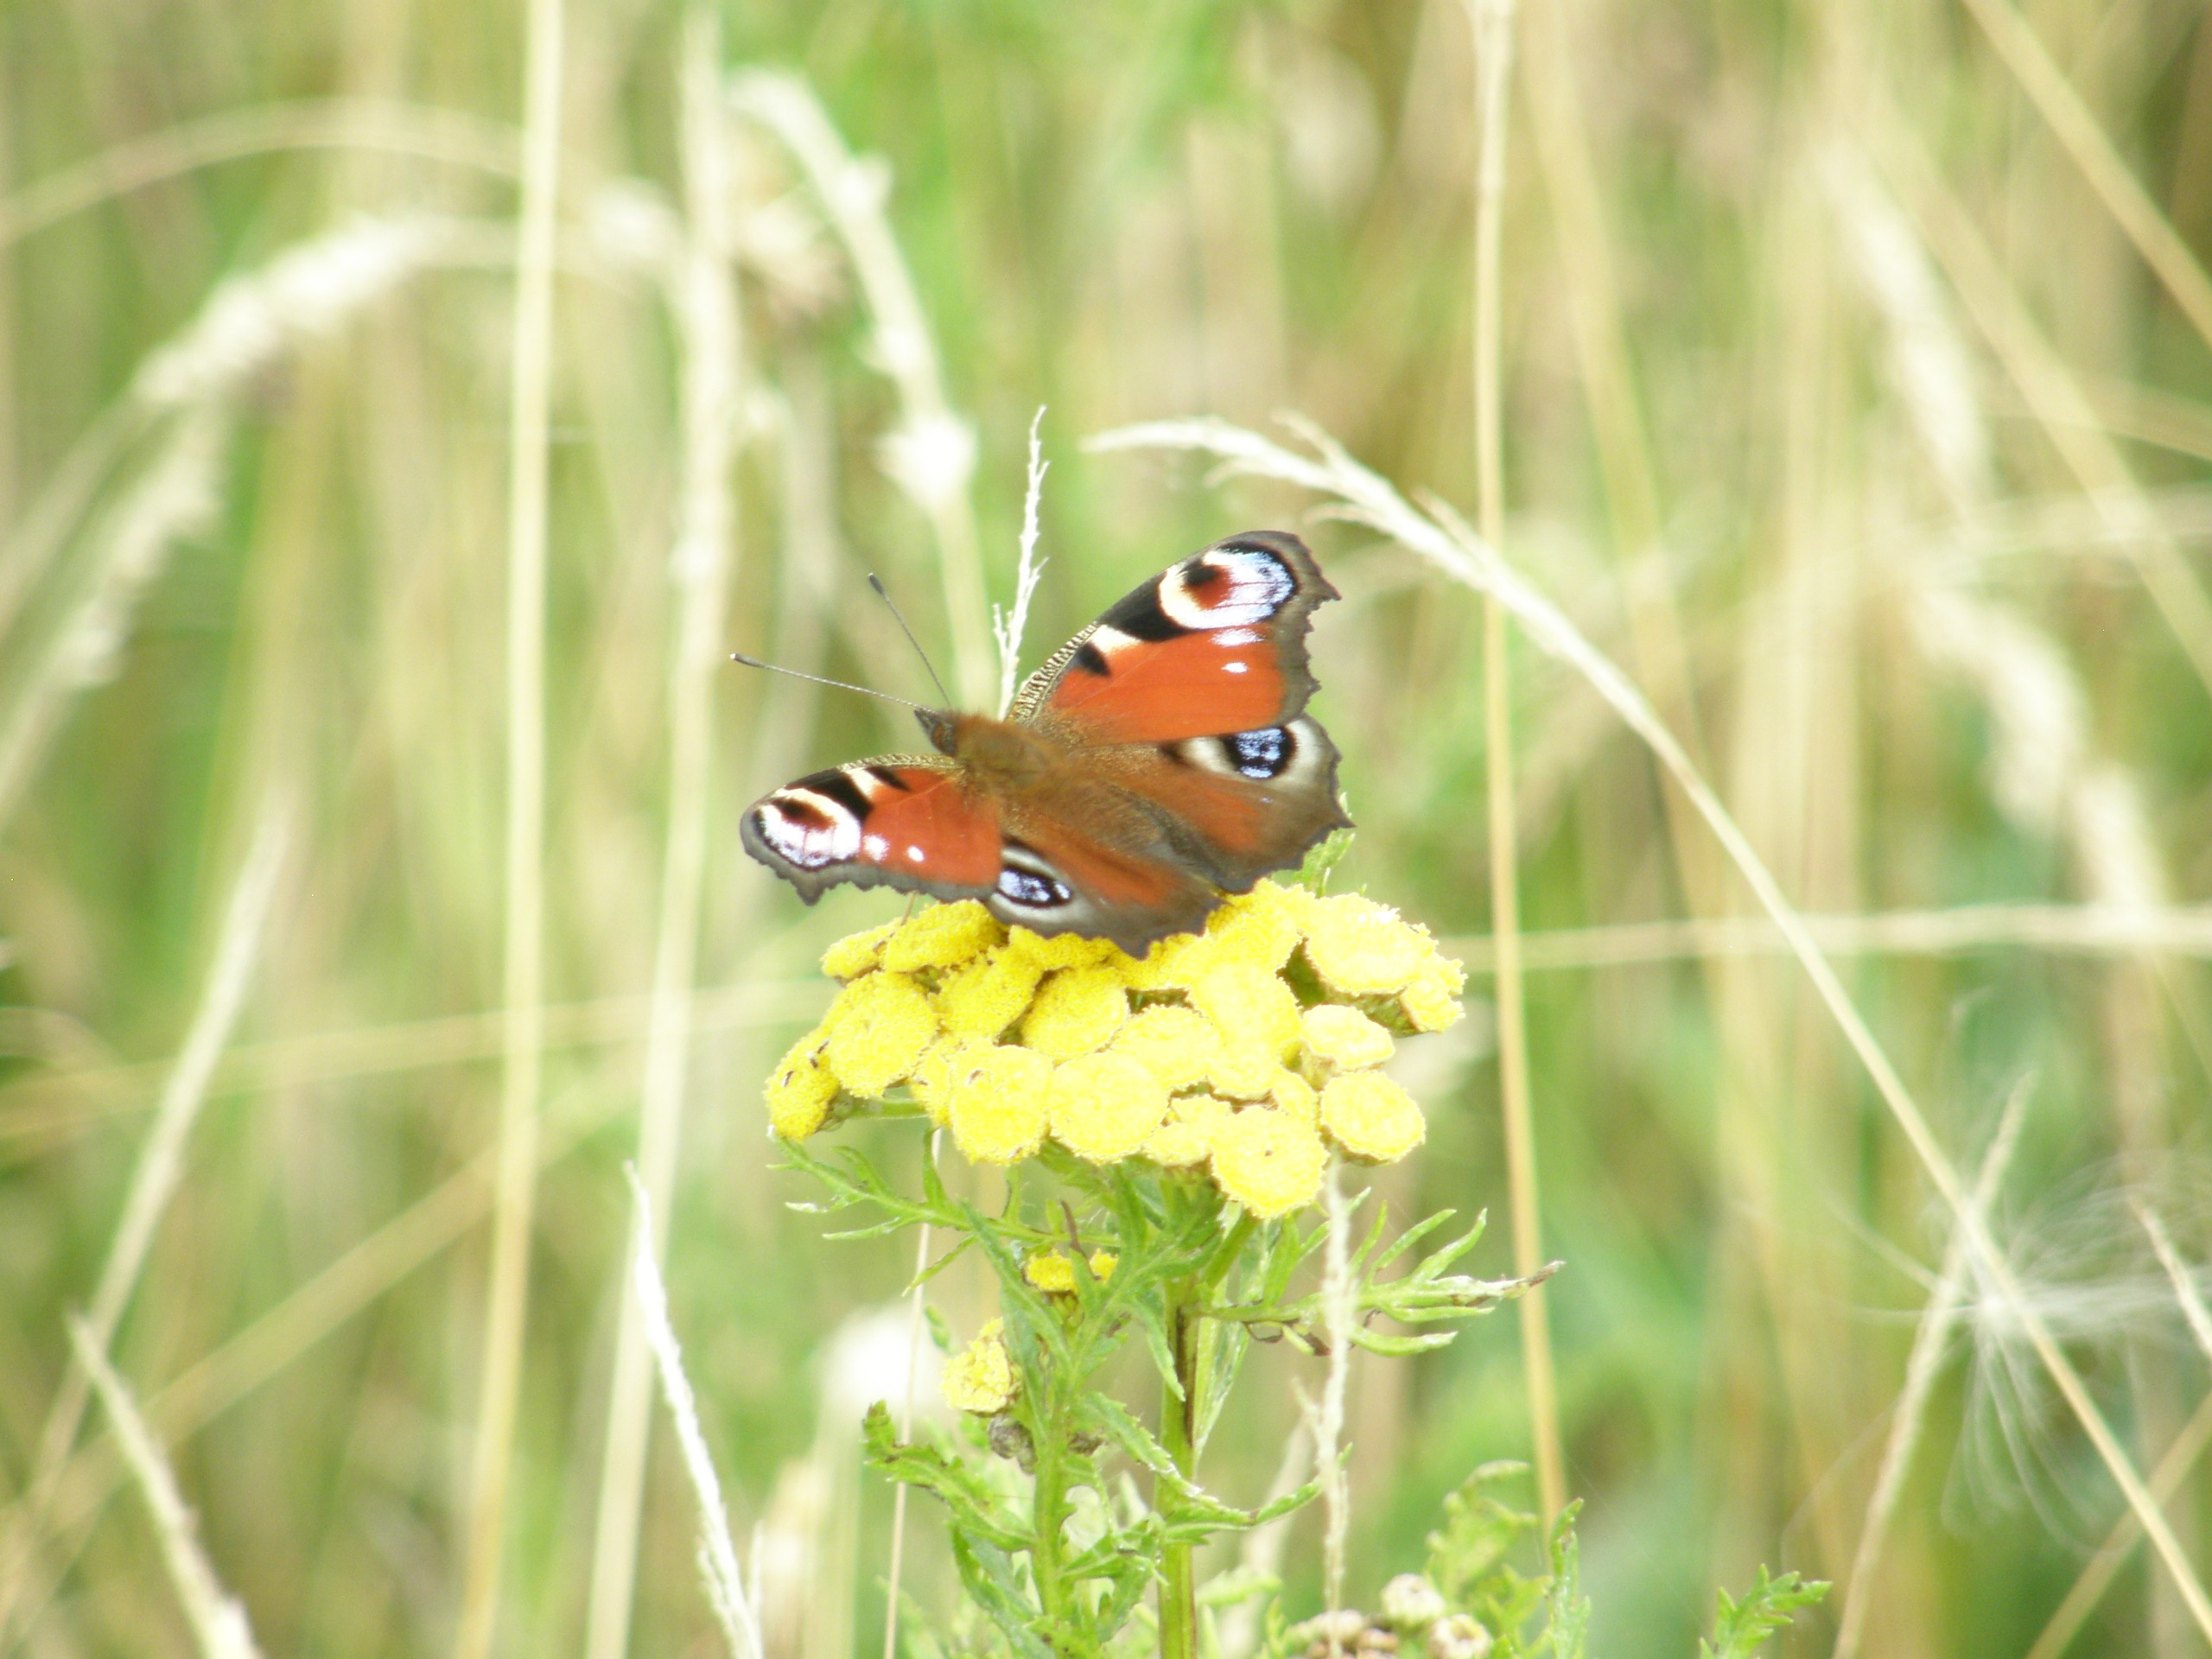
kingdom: Animalia
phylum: Arthropoda
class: Insecta
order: Lepidoptera
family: Nymphalidae
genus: Aglais
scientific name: Aglais io
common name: Dagpåfugleøje
